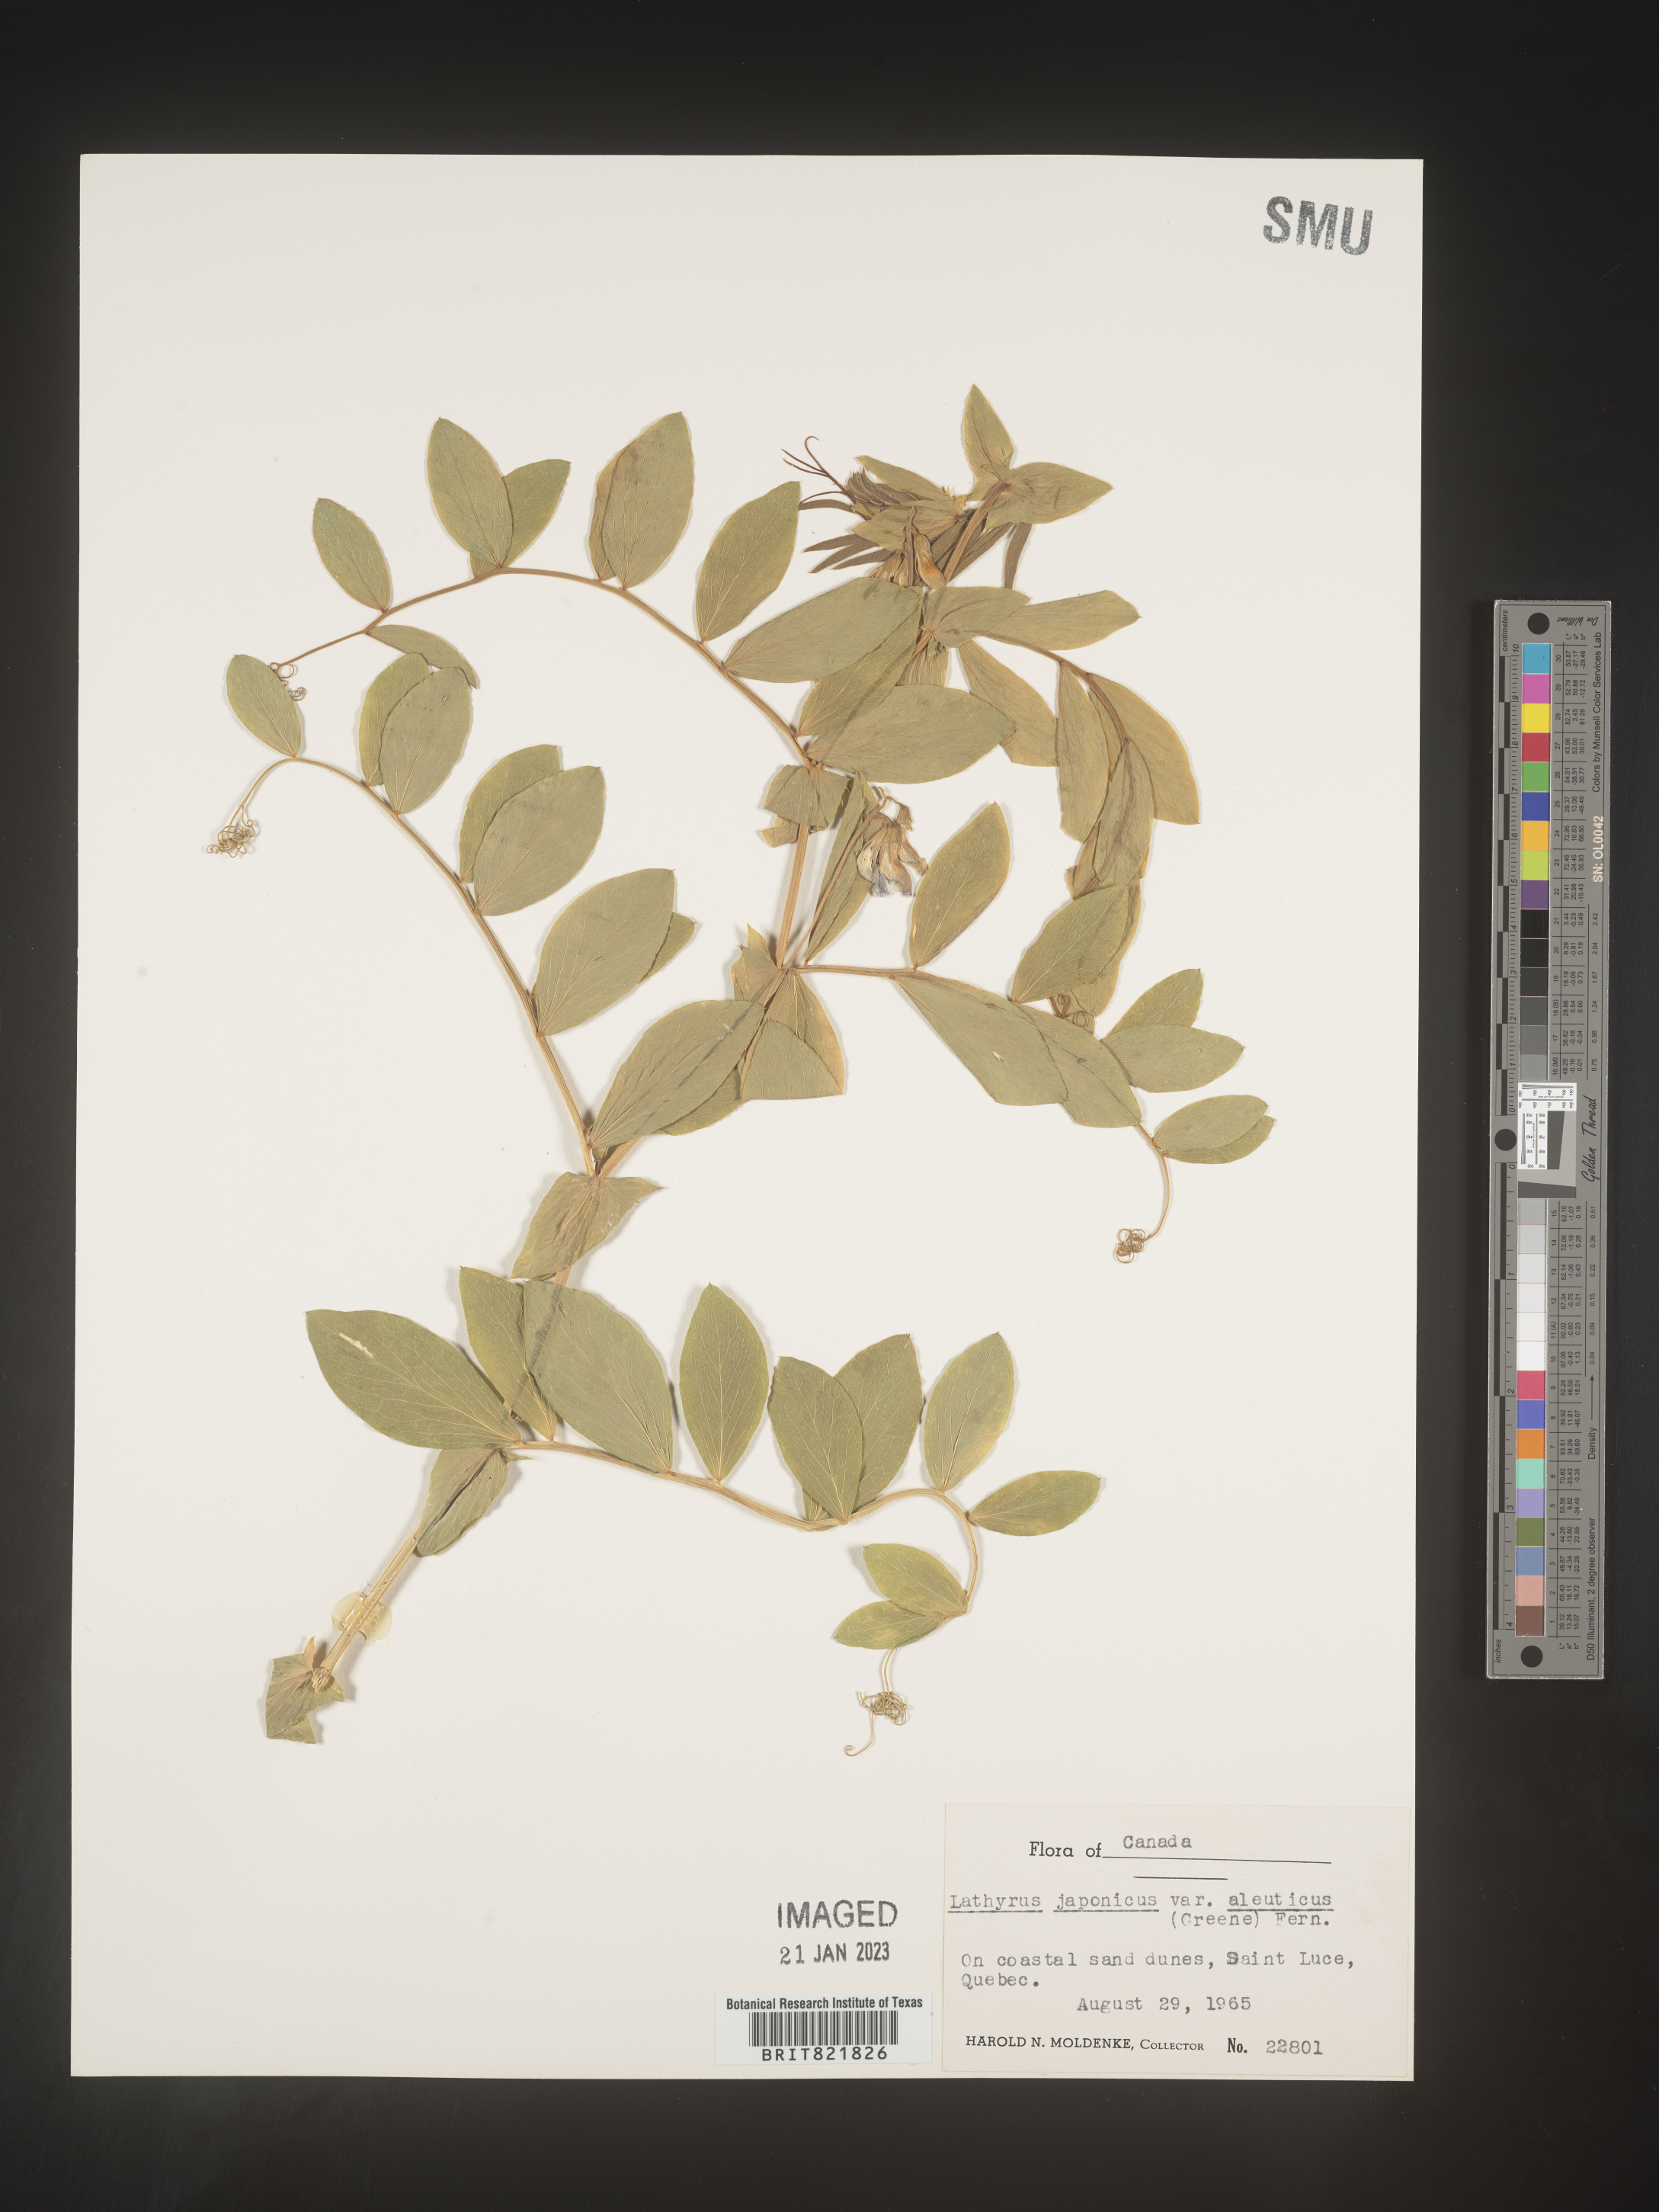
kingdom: Plantae
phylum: Tracheophyta
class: Magnoliopsida
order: Fabales
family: Fabaceae
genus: Lathyrus
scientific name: Lathyrus japonicus
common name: Sea pea
